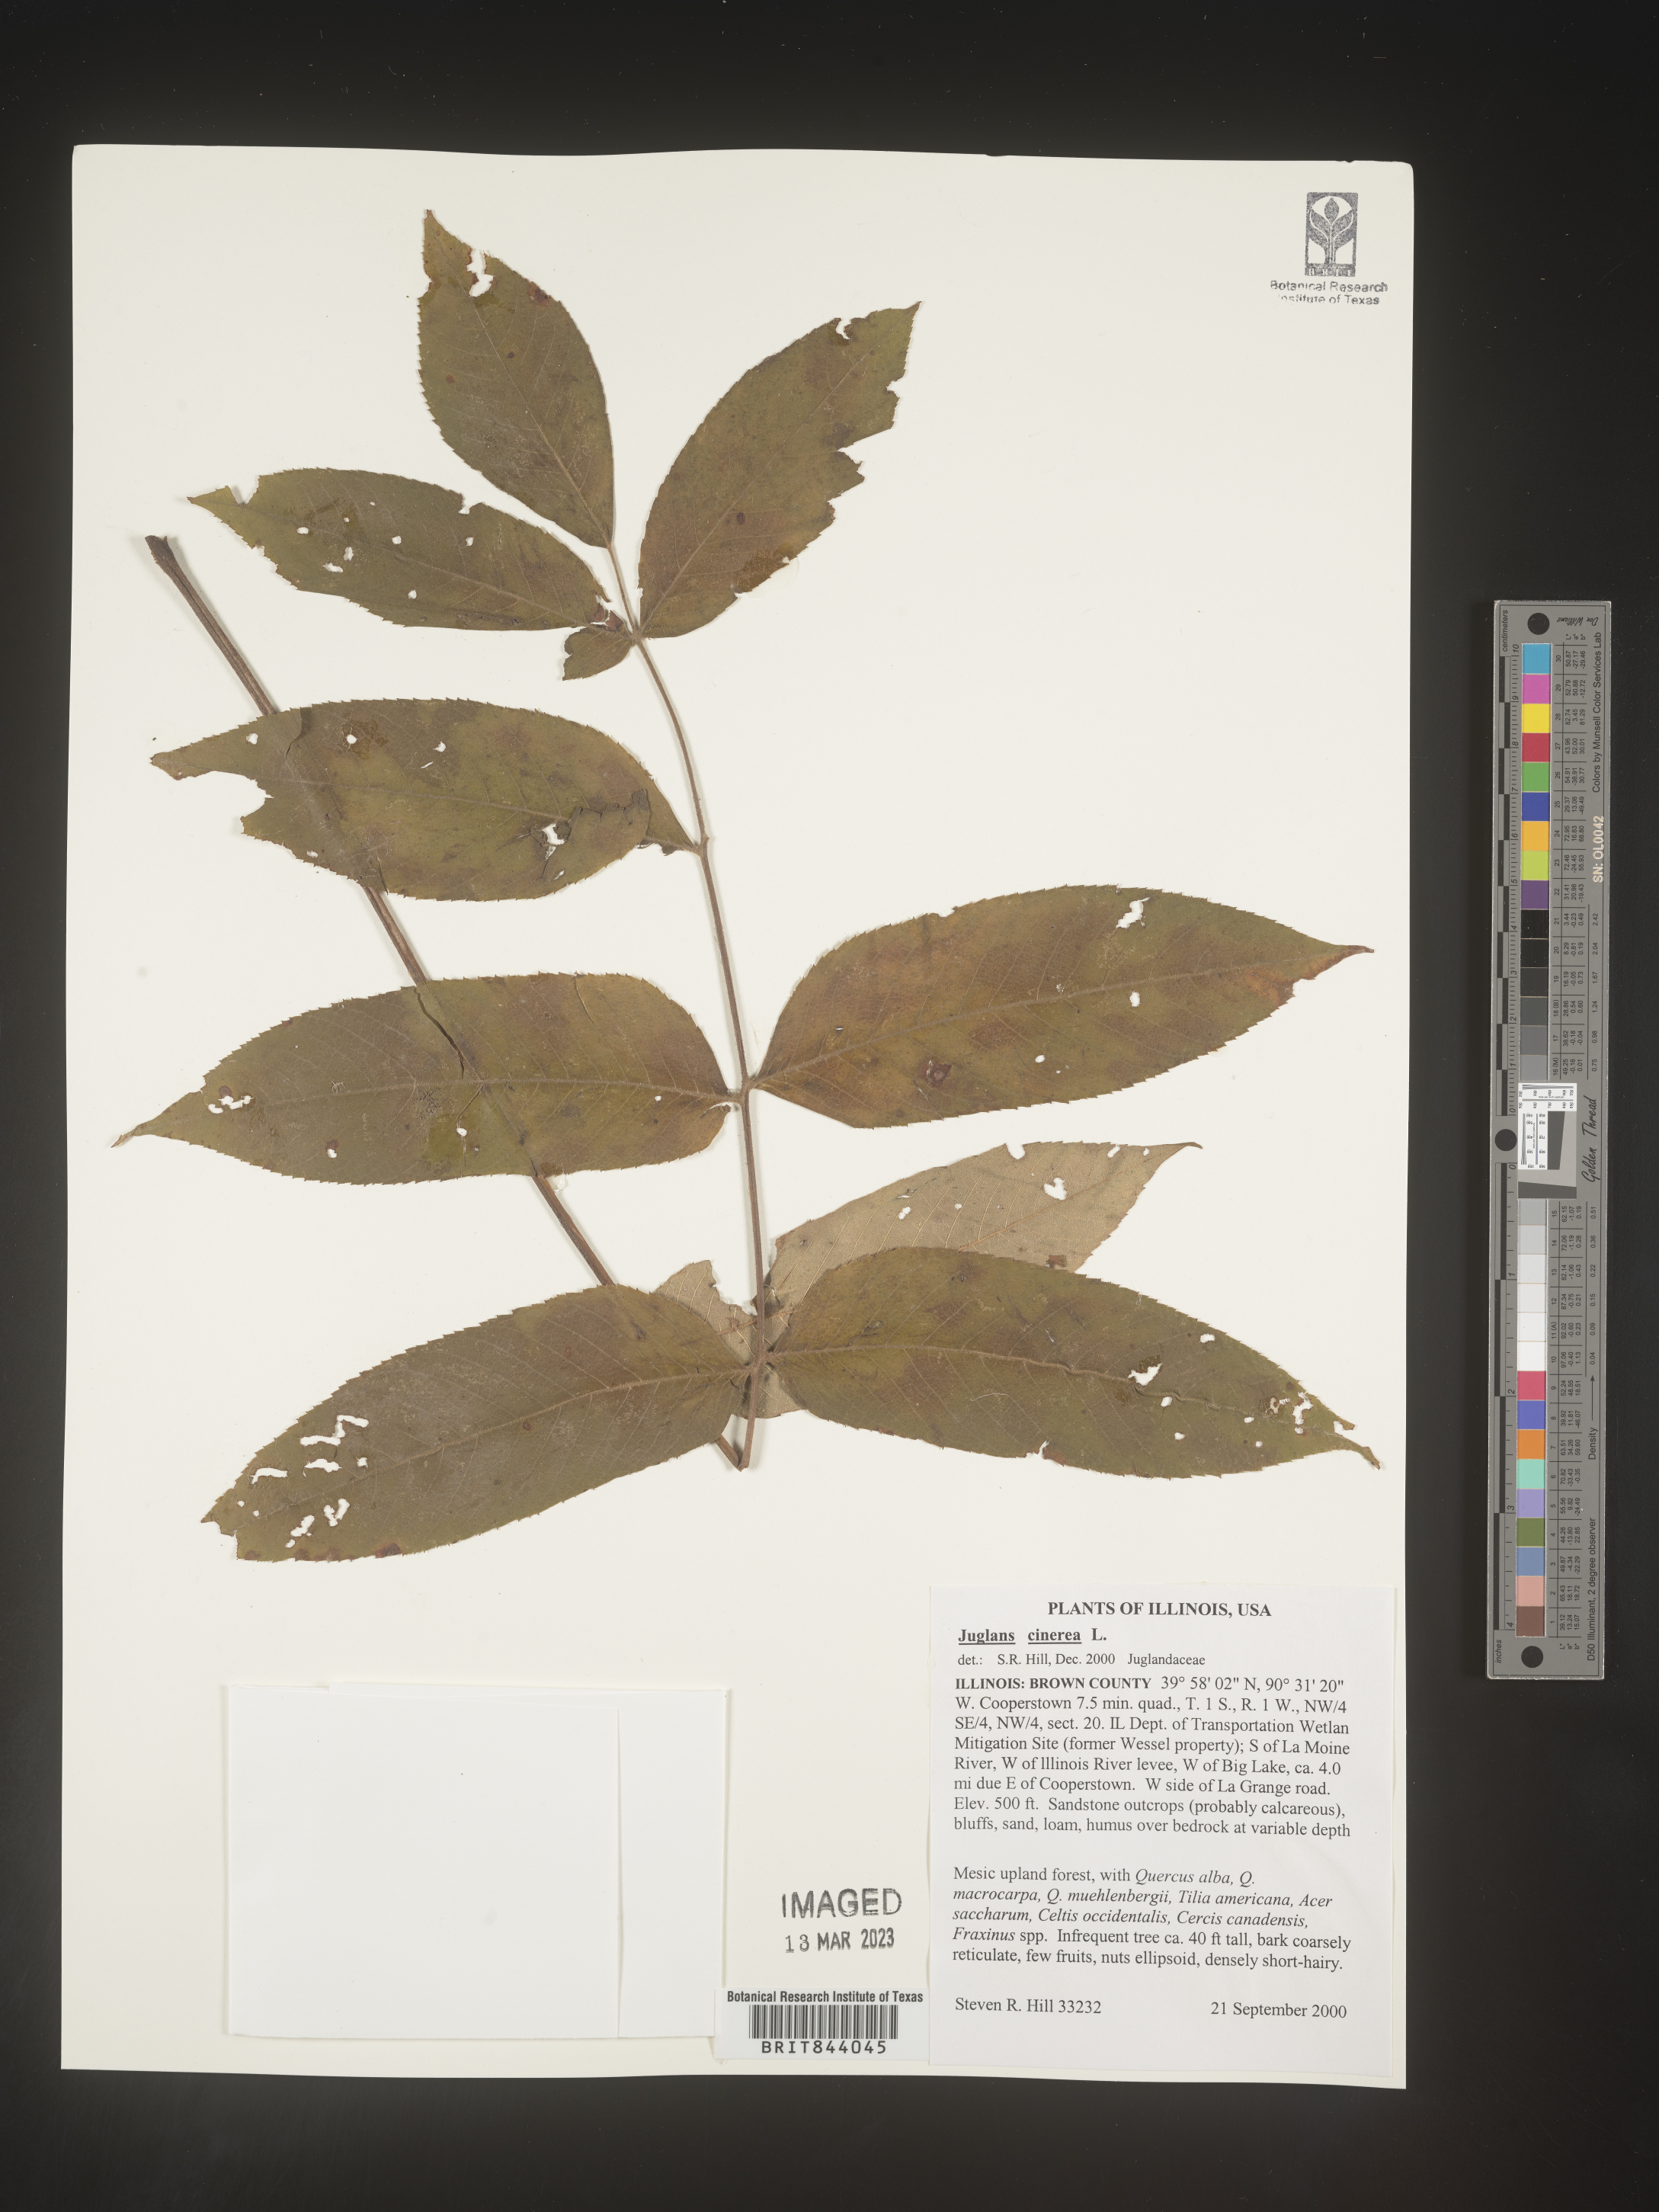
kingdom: Plantae
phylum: Tracheophyta
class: Magnoliopsida
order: Fagales
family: Juglandaceae
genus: Juglans
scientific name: Juglans cinerea
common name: Butternut
